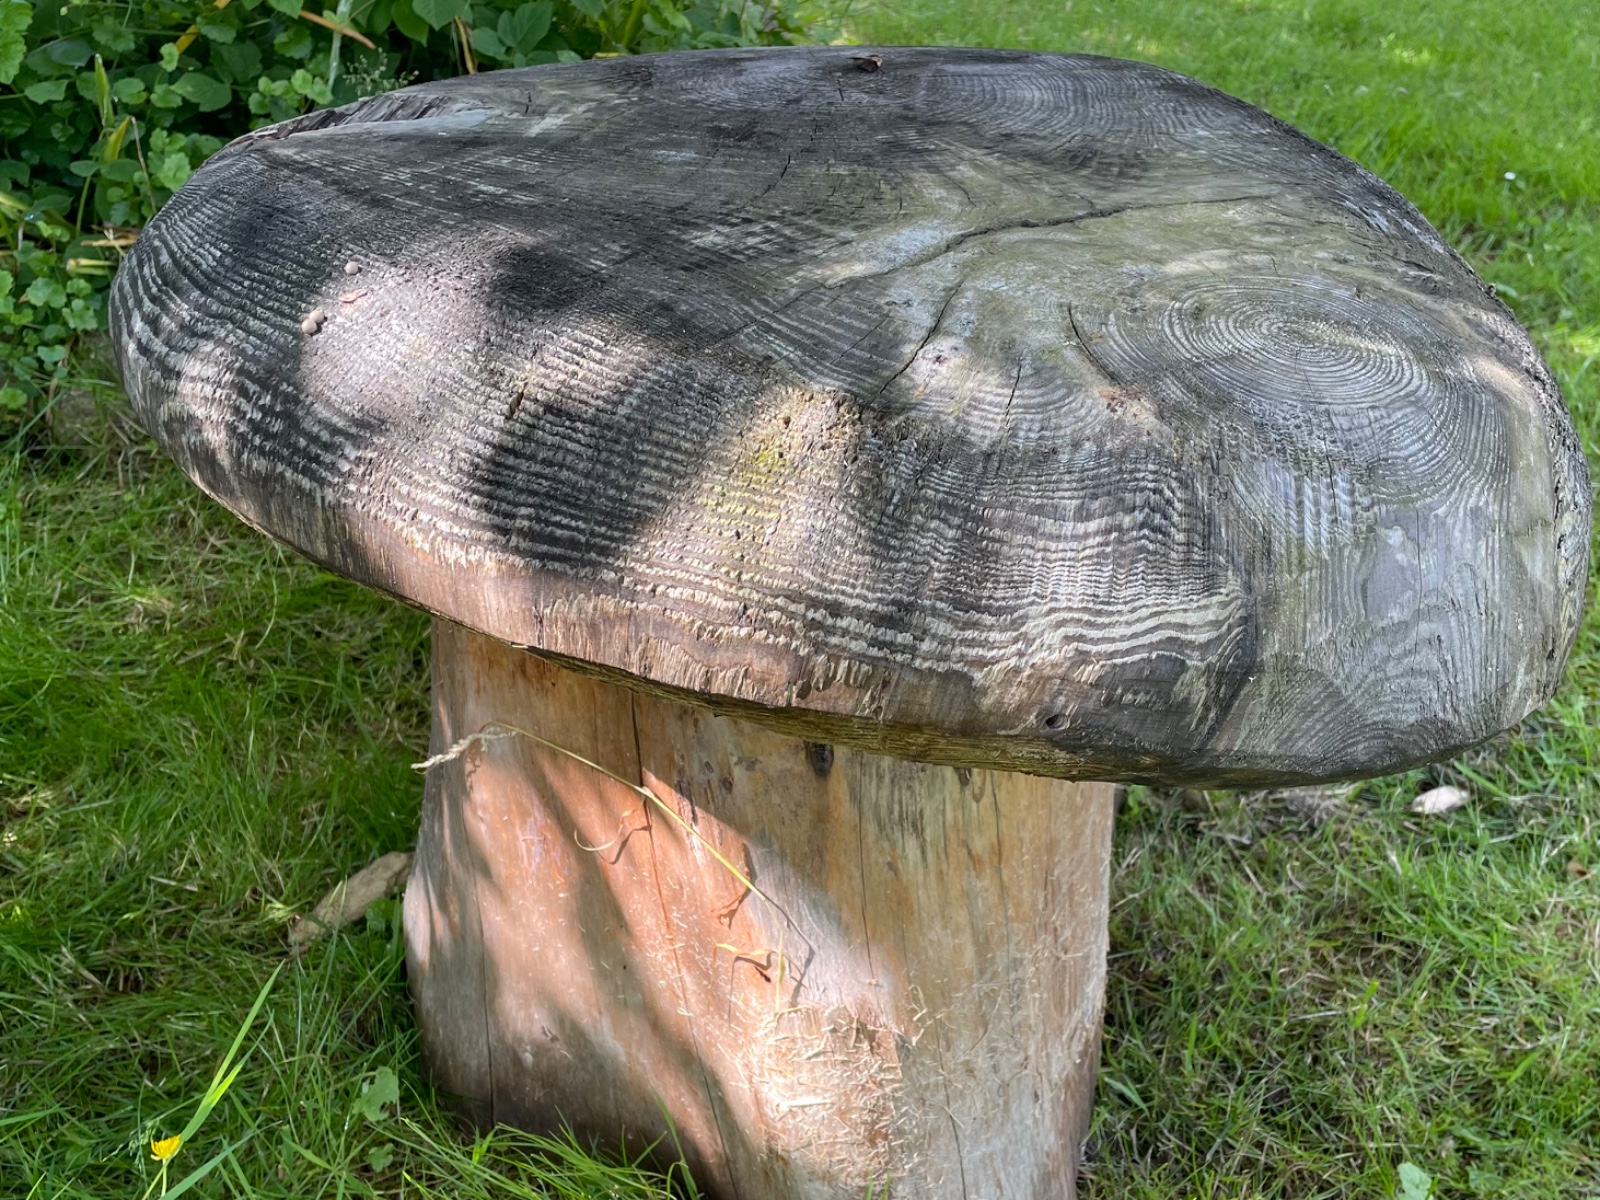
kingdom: Protozoa
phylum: Mycetozoa
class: Myxomycetes
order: Cribrariales
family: Tubiferaceae
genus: Lycogala
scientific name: Lycogala epidendrum
